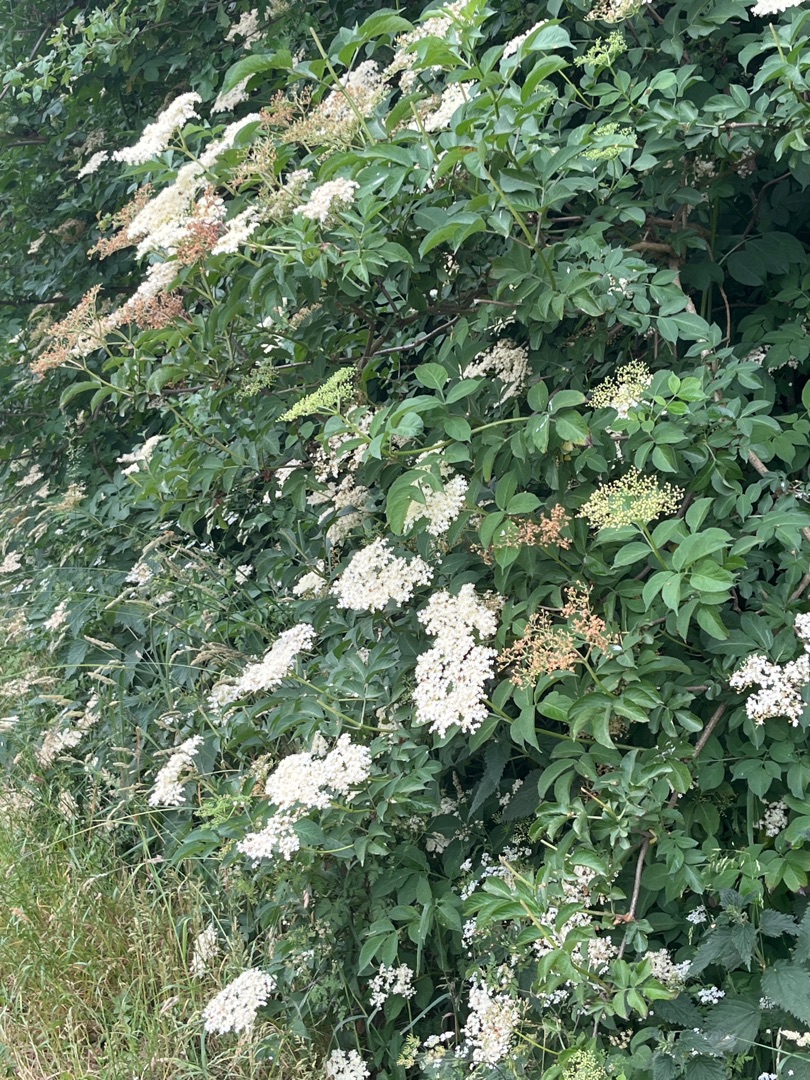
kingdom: Plantae
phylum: Tracheophyta
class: Magnoliopsida
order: Dipsacales
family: Viburnaceae
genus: Sambucus
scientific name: Sambucus nigra
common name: Almindelig hyld
